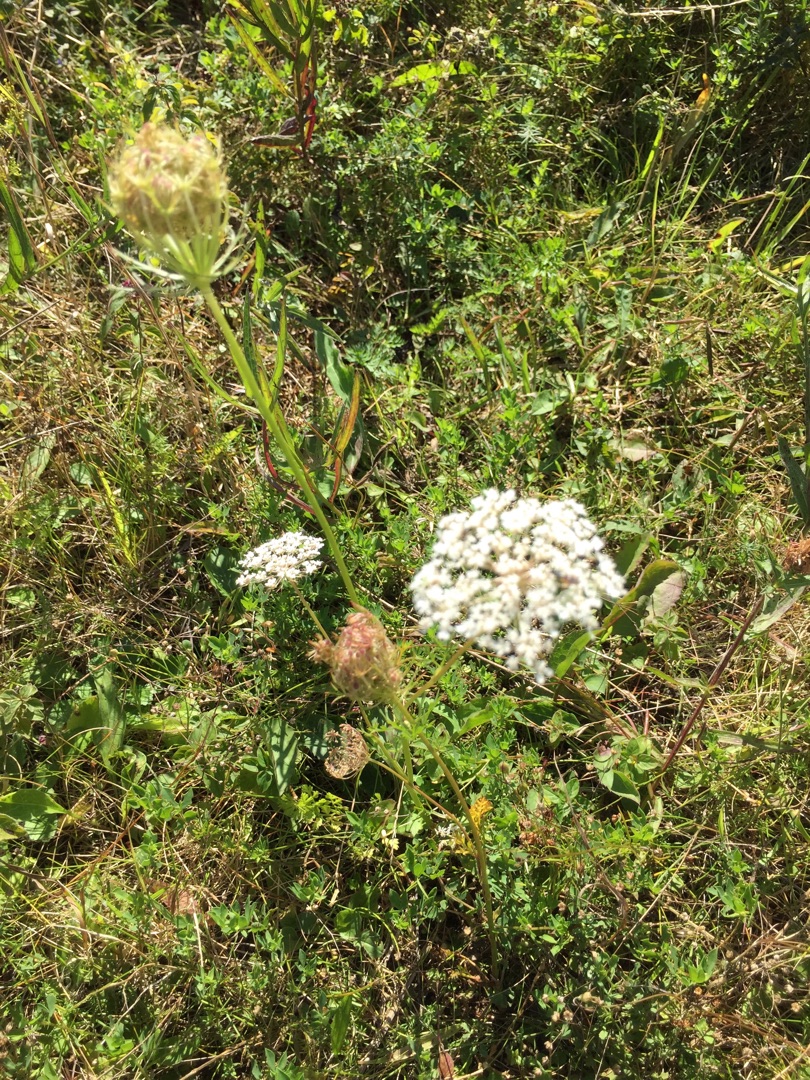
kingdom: Plantae
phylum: Tracheophyta
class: Magnoliopsida
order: Apiales
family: Apiaceae
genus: Daucus
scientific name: Daucus carota
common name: Vild gulerod
